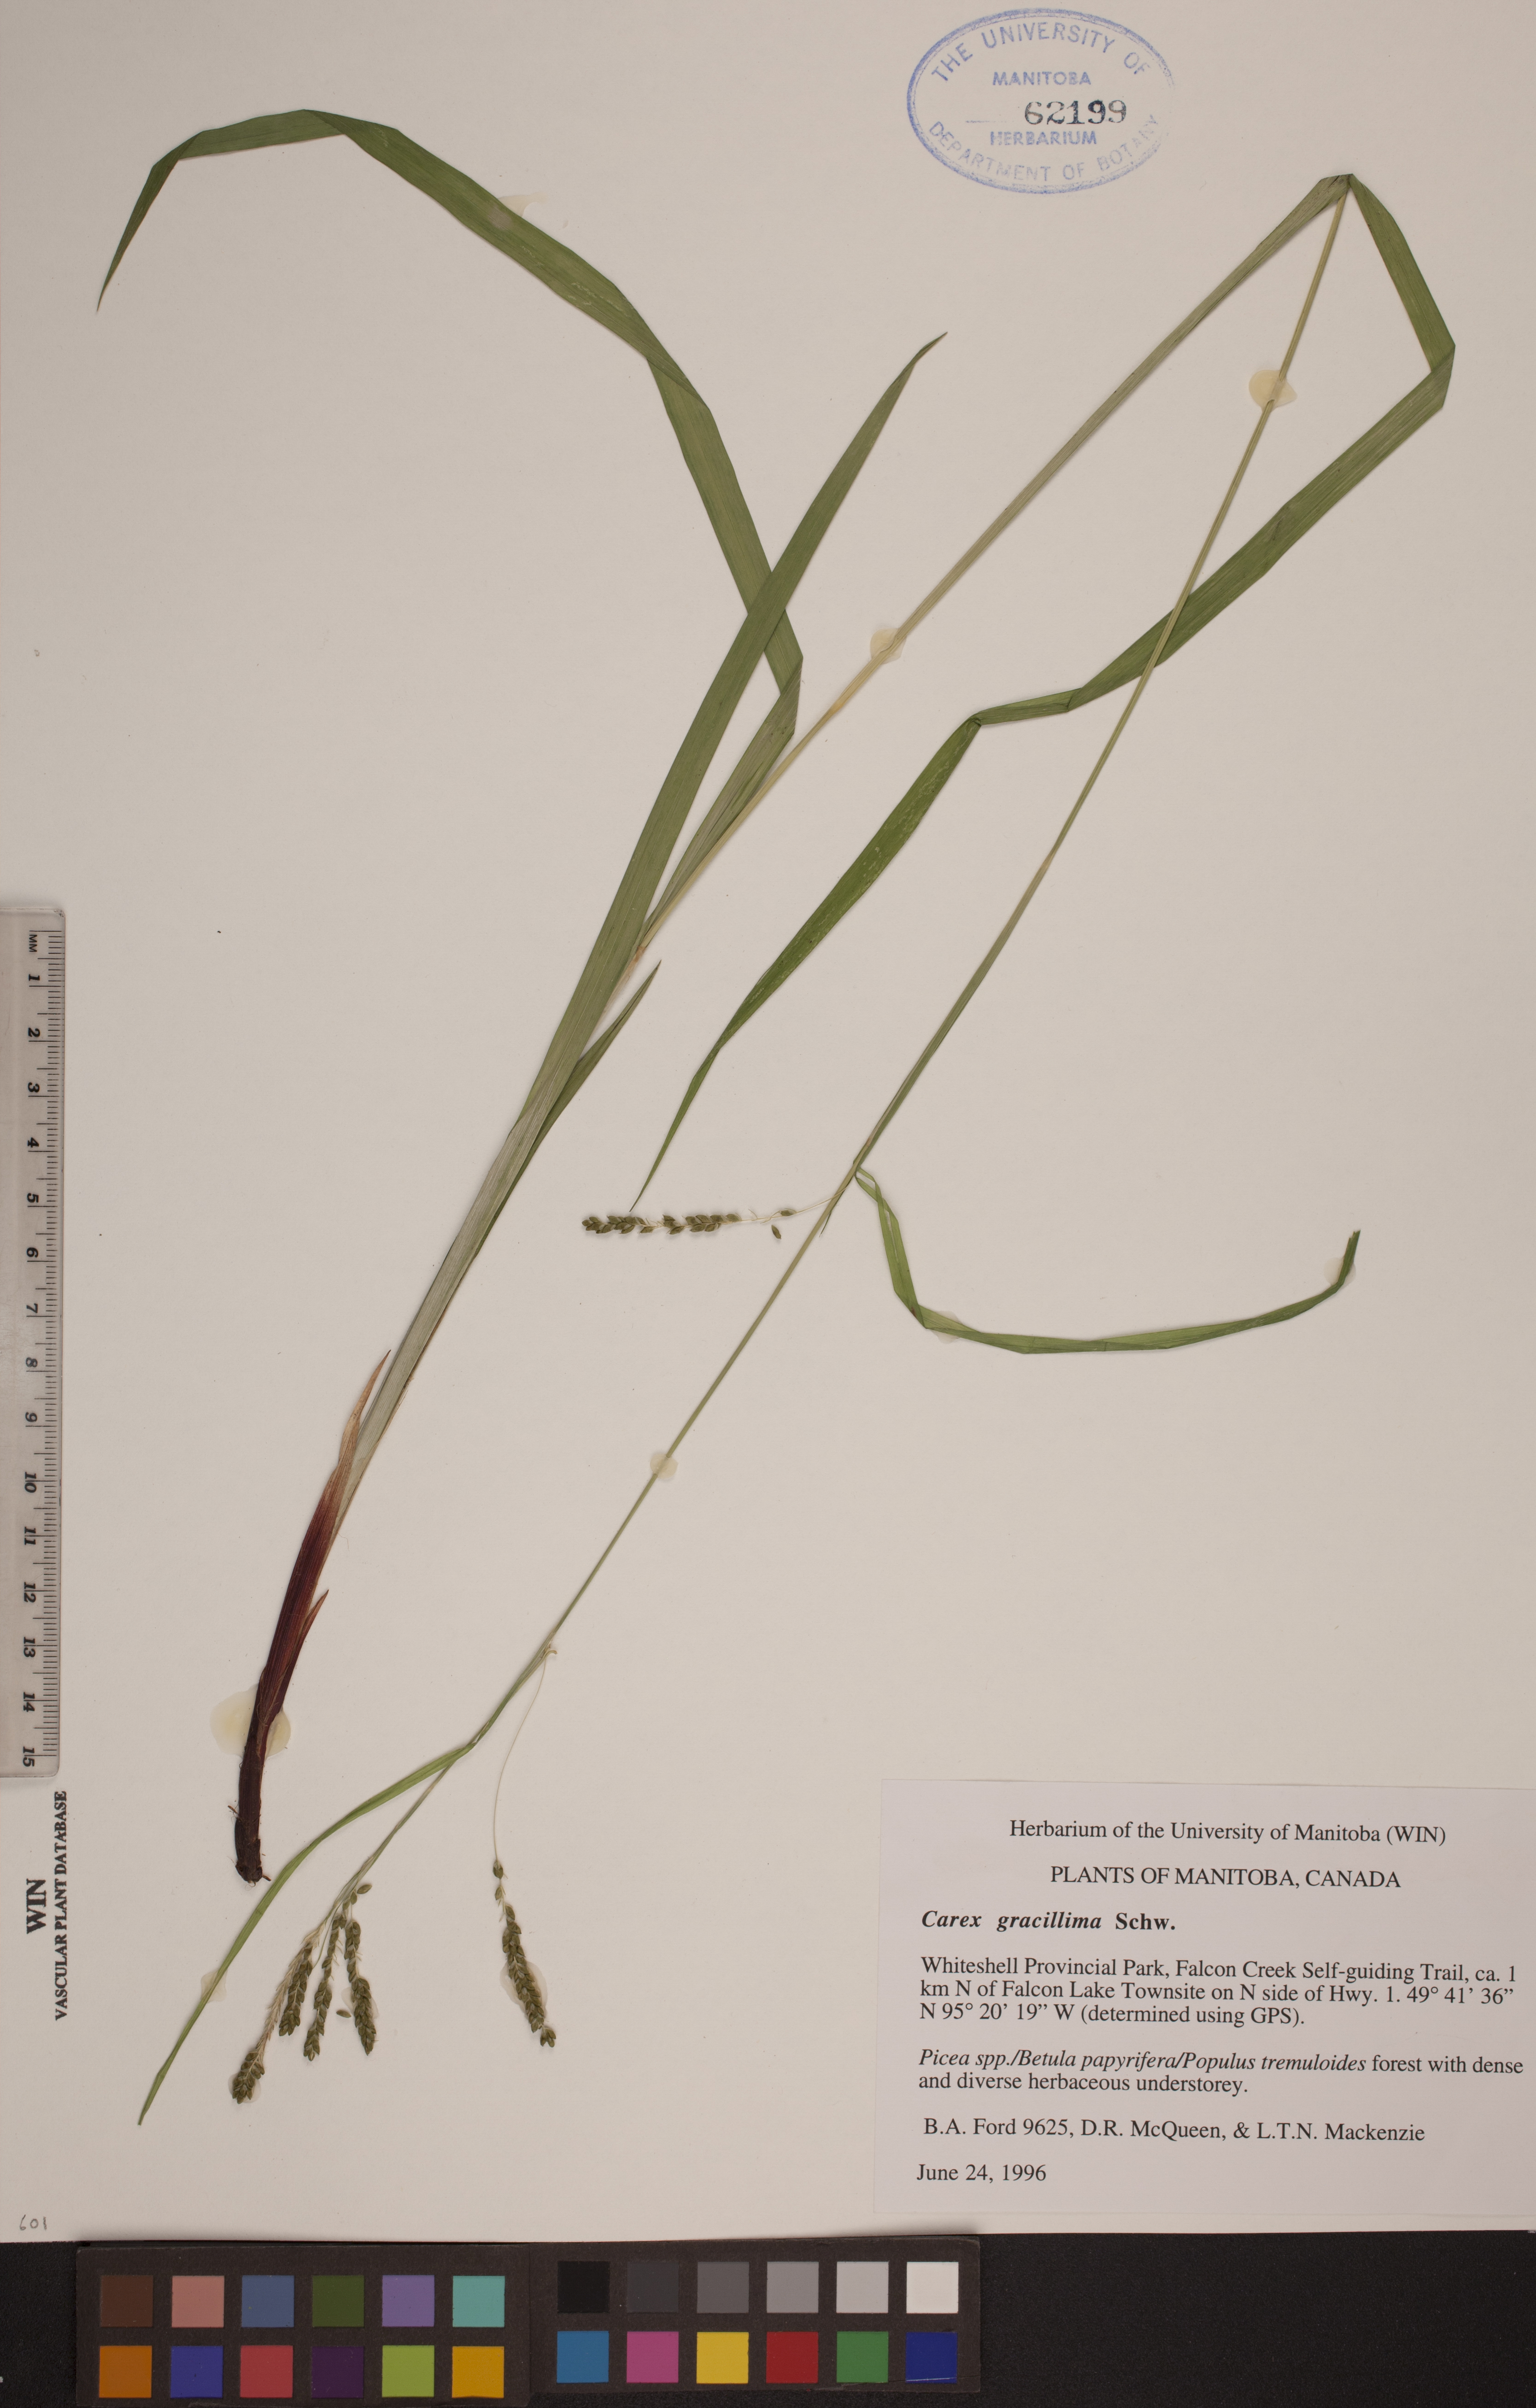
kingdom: Plantae
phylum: Tracheophyta
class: Liliopsida
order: Poales
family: Cyperaceae
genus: Carex
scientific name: Carex gracillima
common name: Graceful sedge
